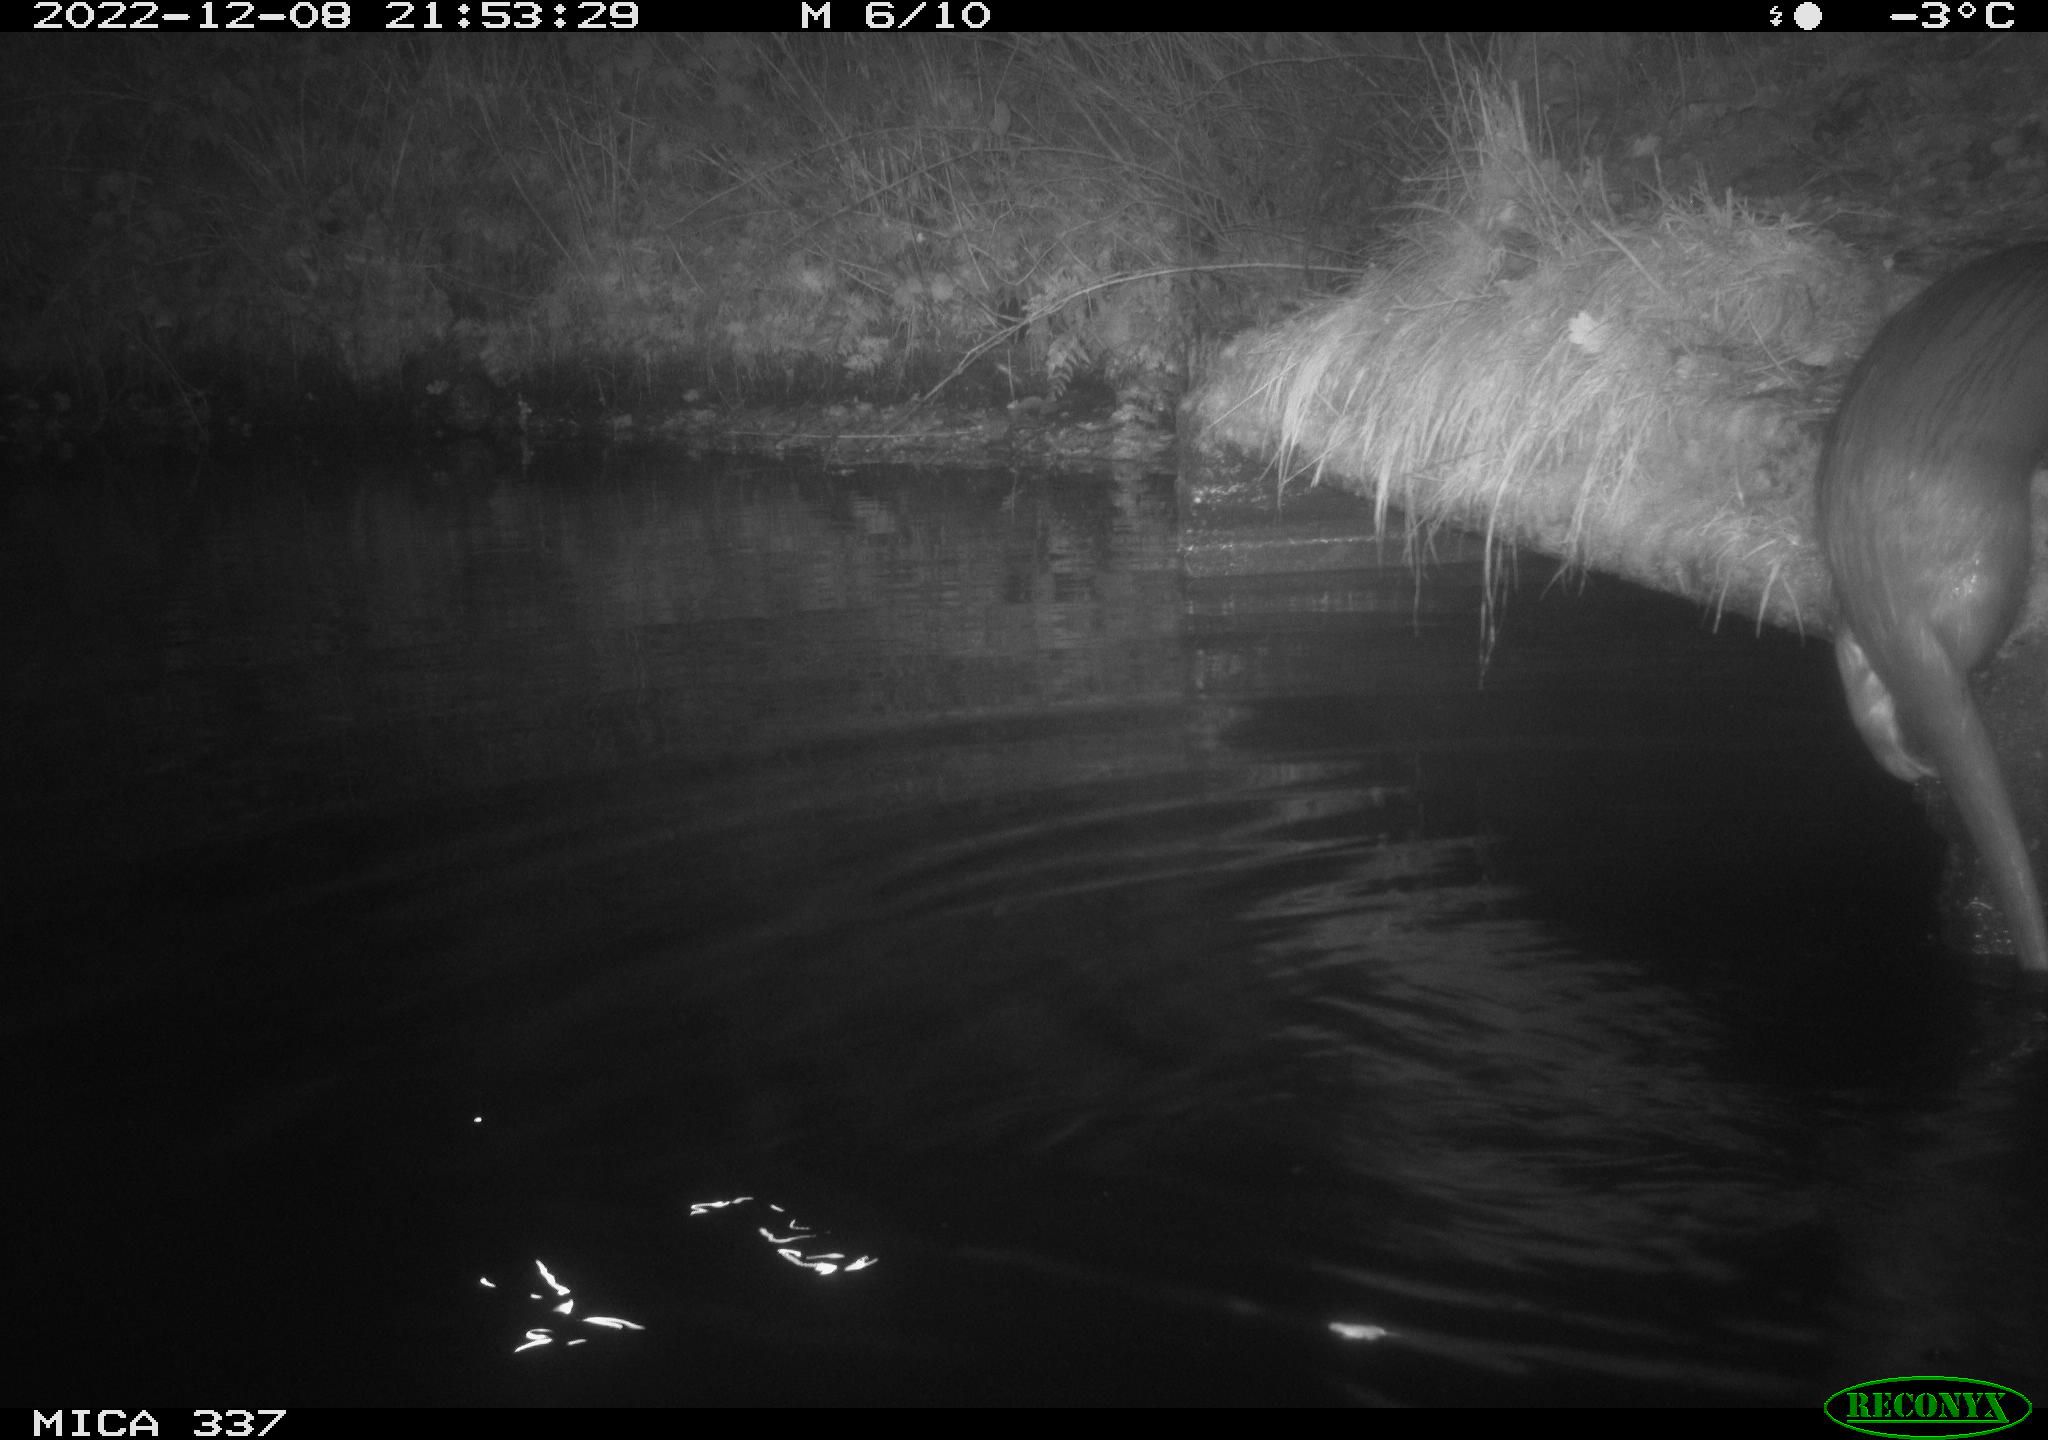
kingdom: Animalia
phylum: Chordata
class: Mammalia
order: Rodentia
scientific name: Rodentia
